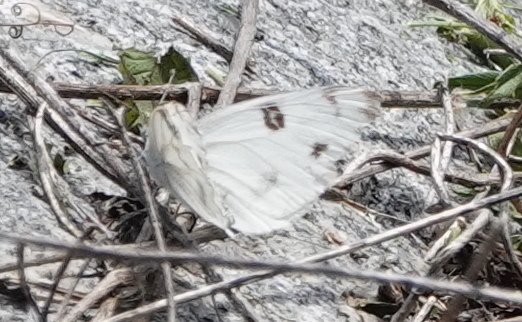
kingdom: Animalia
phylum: Arthropoda
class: Insecta
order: Lepidoptera
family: Pieridae
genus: Pontia
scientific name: Pontia protodice
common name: Checkered White
